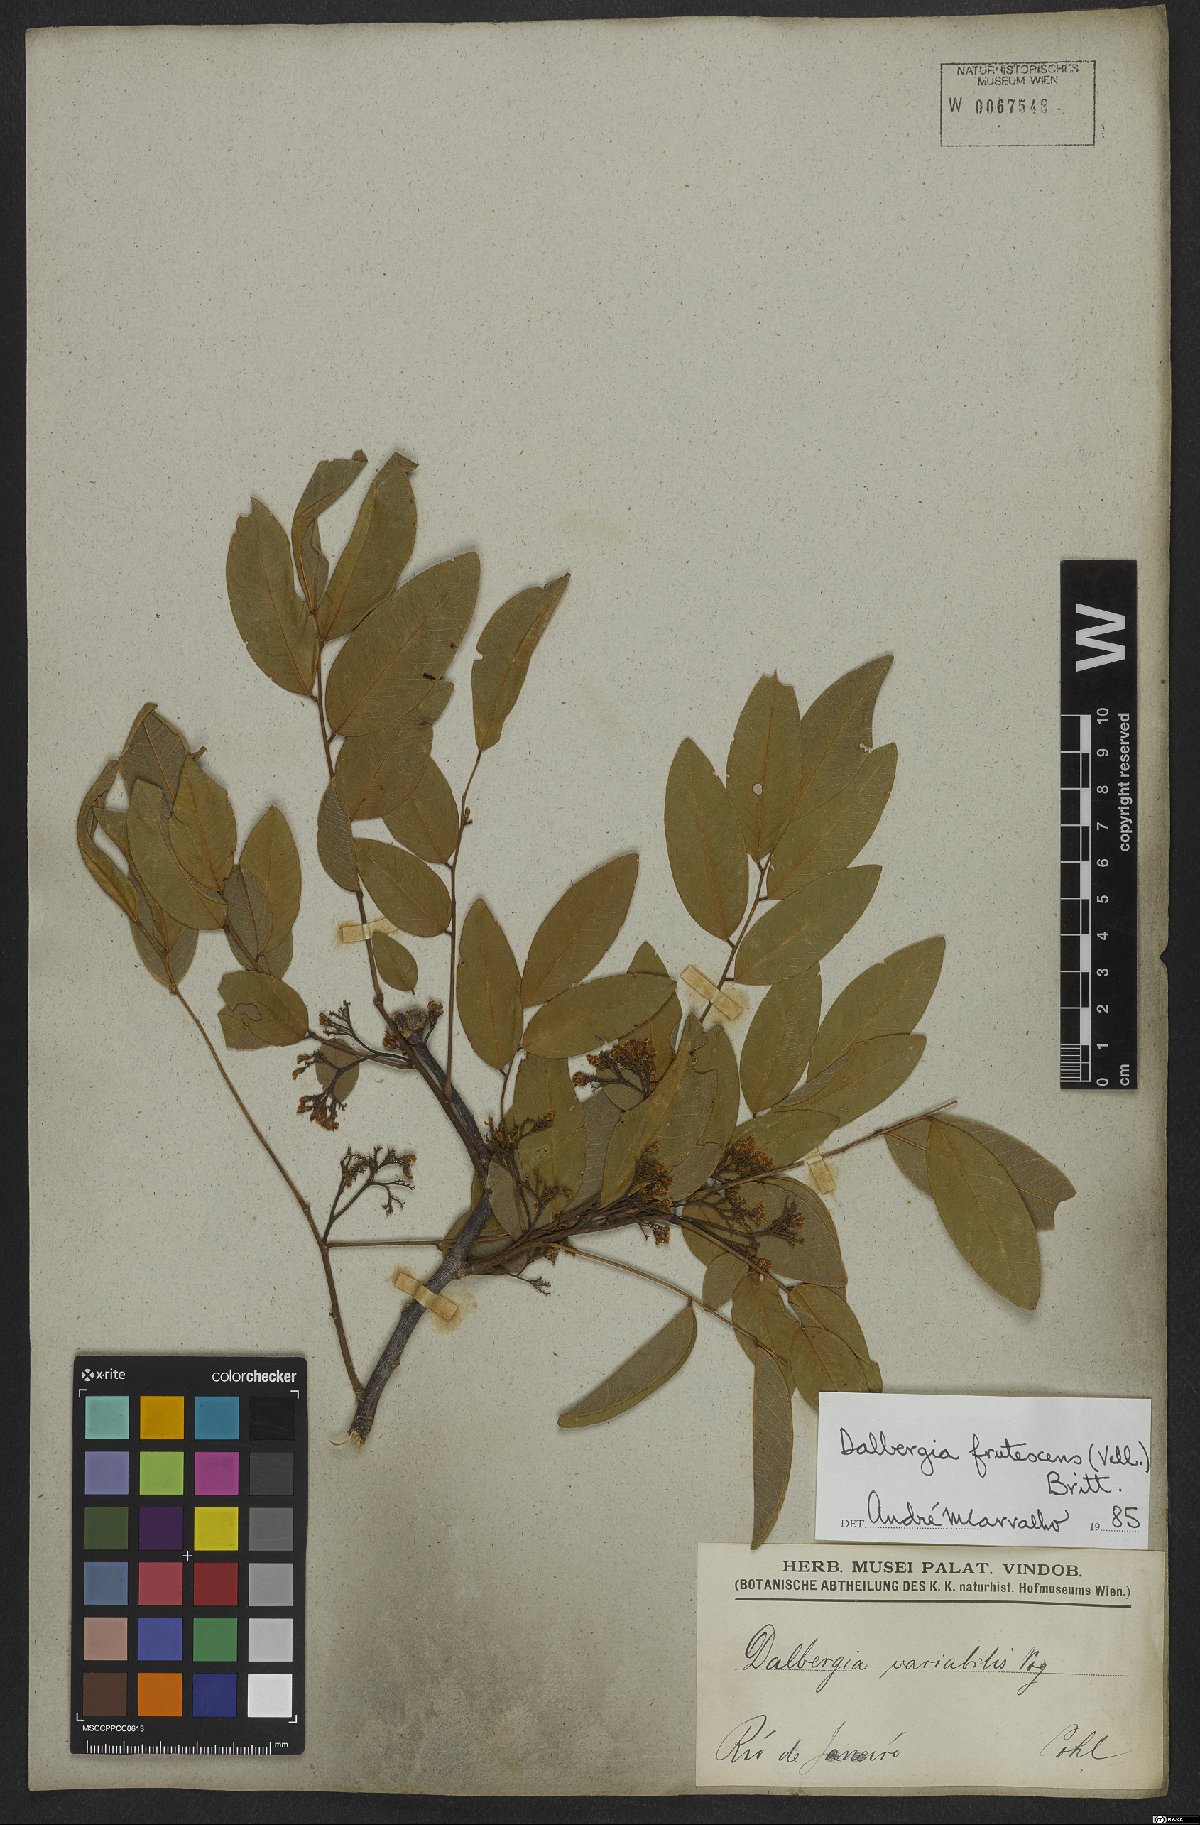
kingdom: Plantae
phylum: Tracheophyta
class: Magnoliopsida
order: Fabales
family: Fabaceae
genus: Dalbergia
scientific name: Dalbergia frutescens
